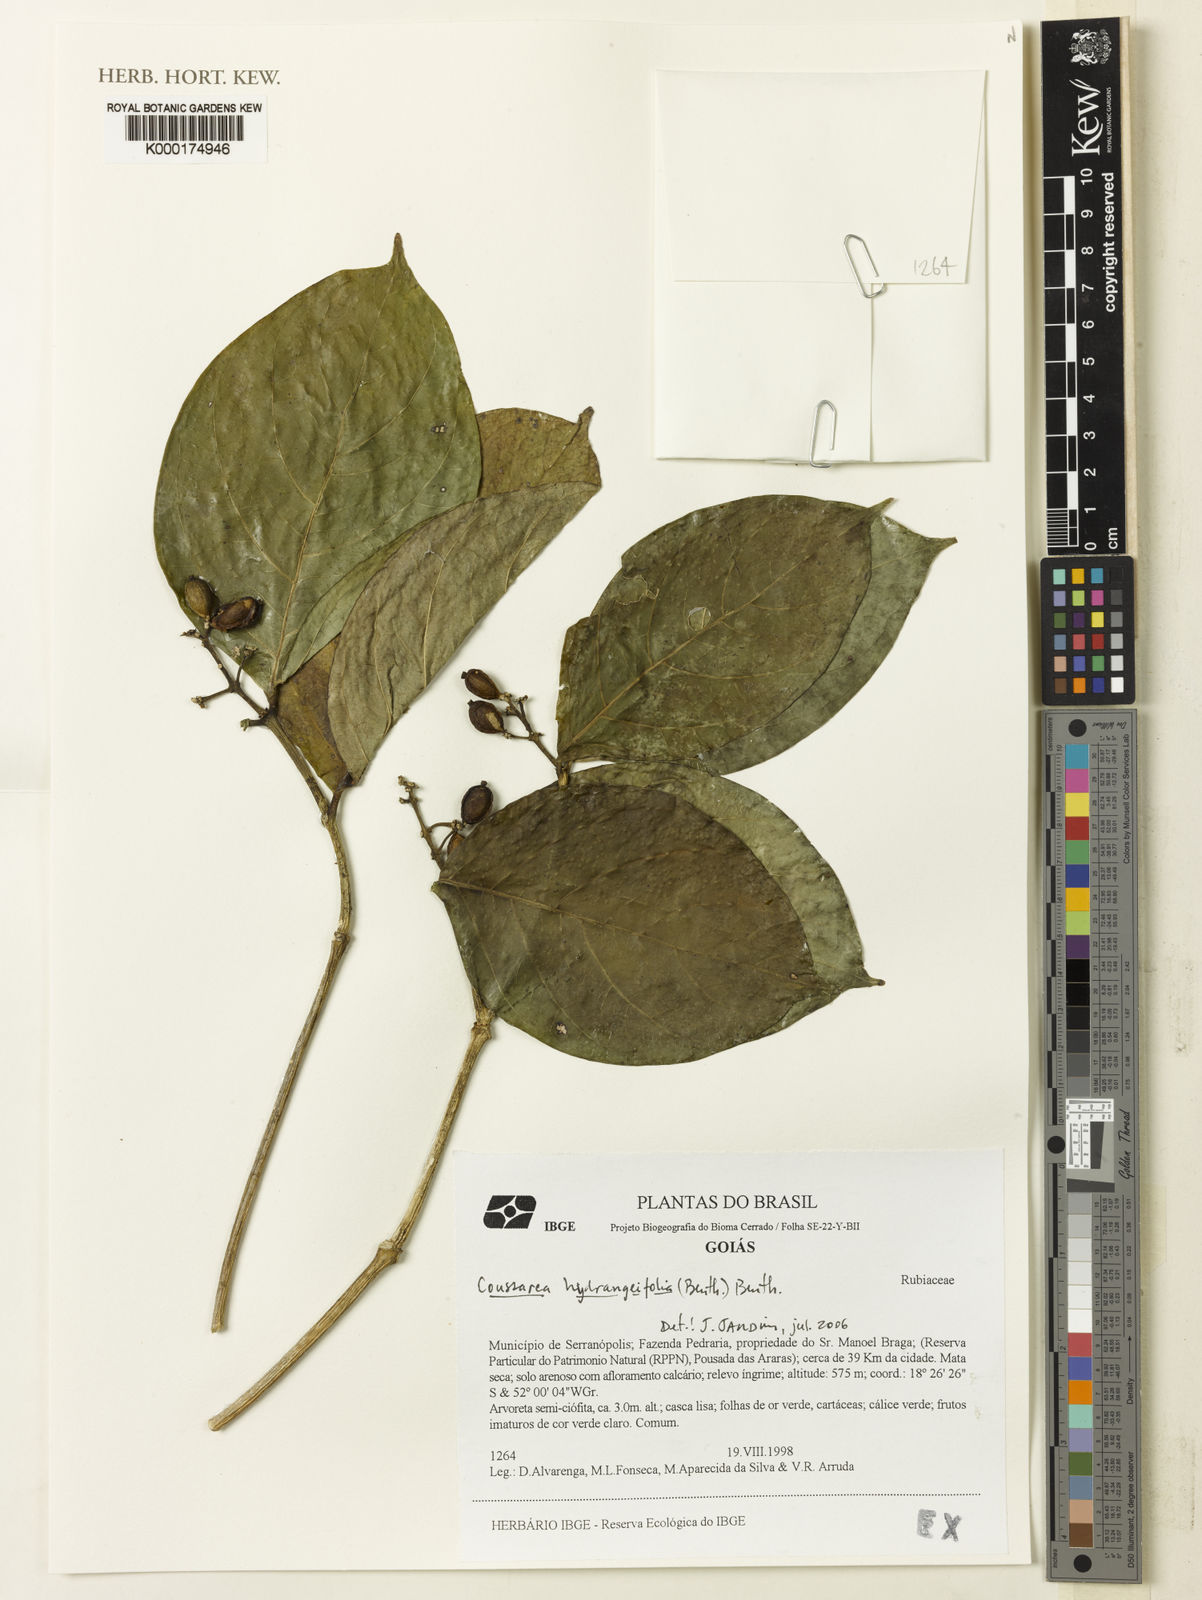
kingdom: Plantae
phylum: Tracheophyta
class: Magnoliopsida
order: Gentianales
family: Rubiaceae
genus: Coussarea
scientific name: Coussarea
